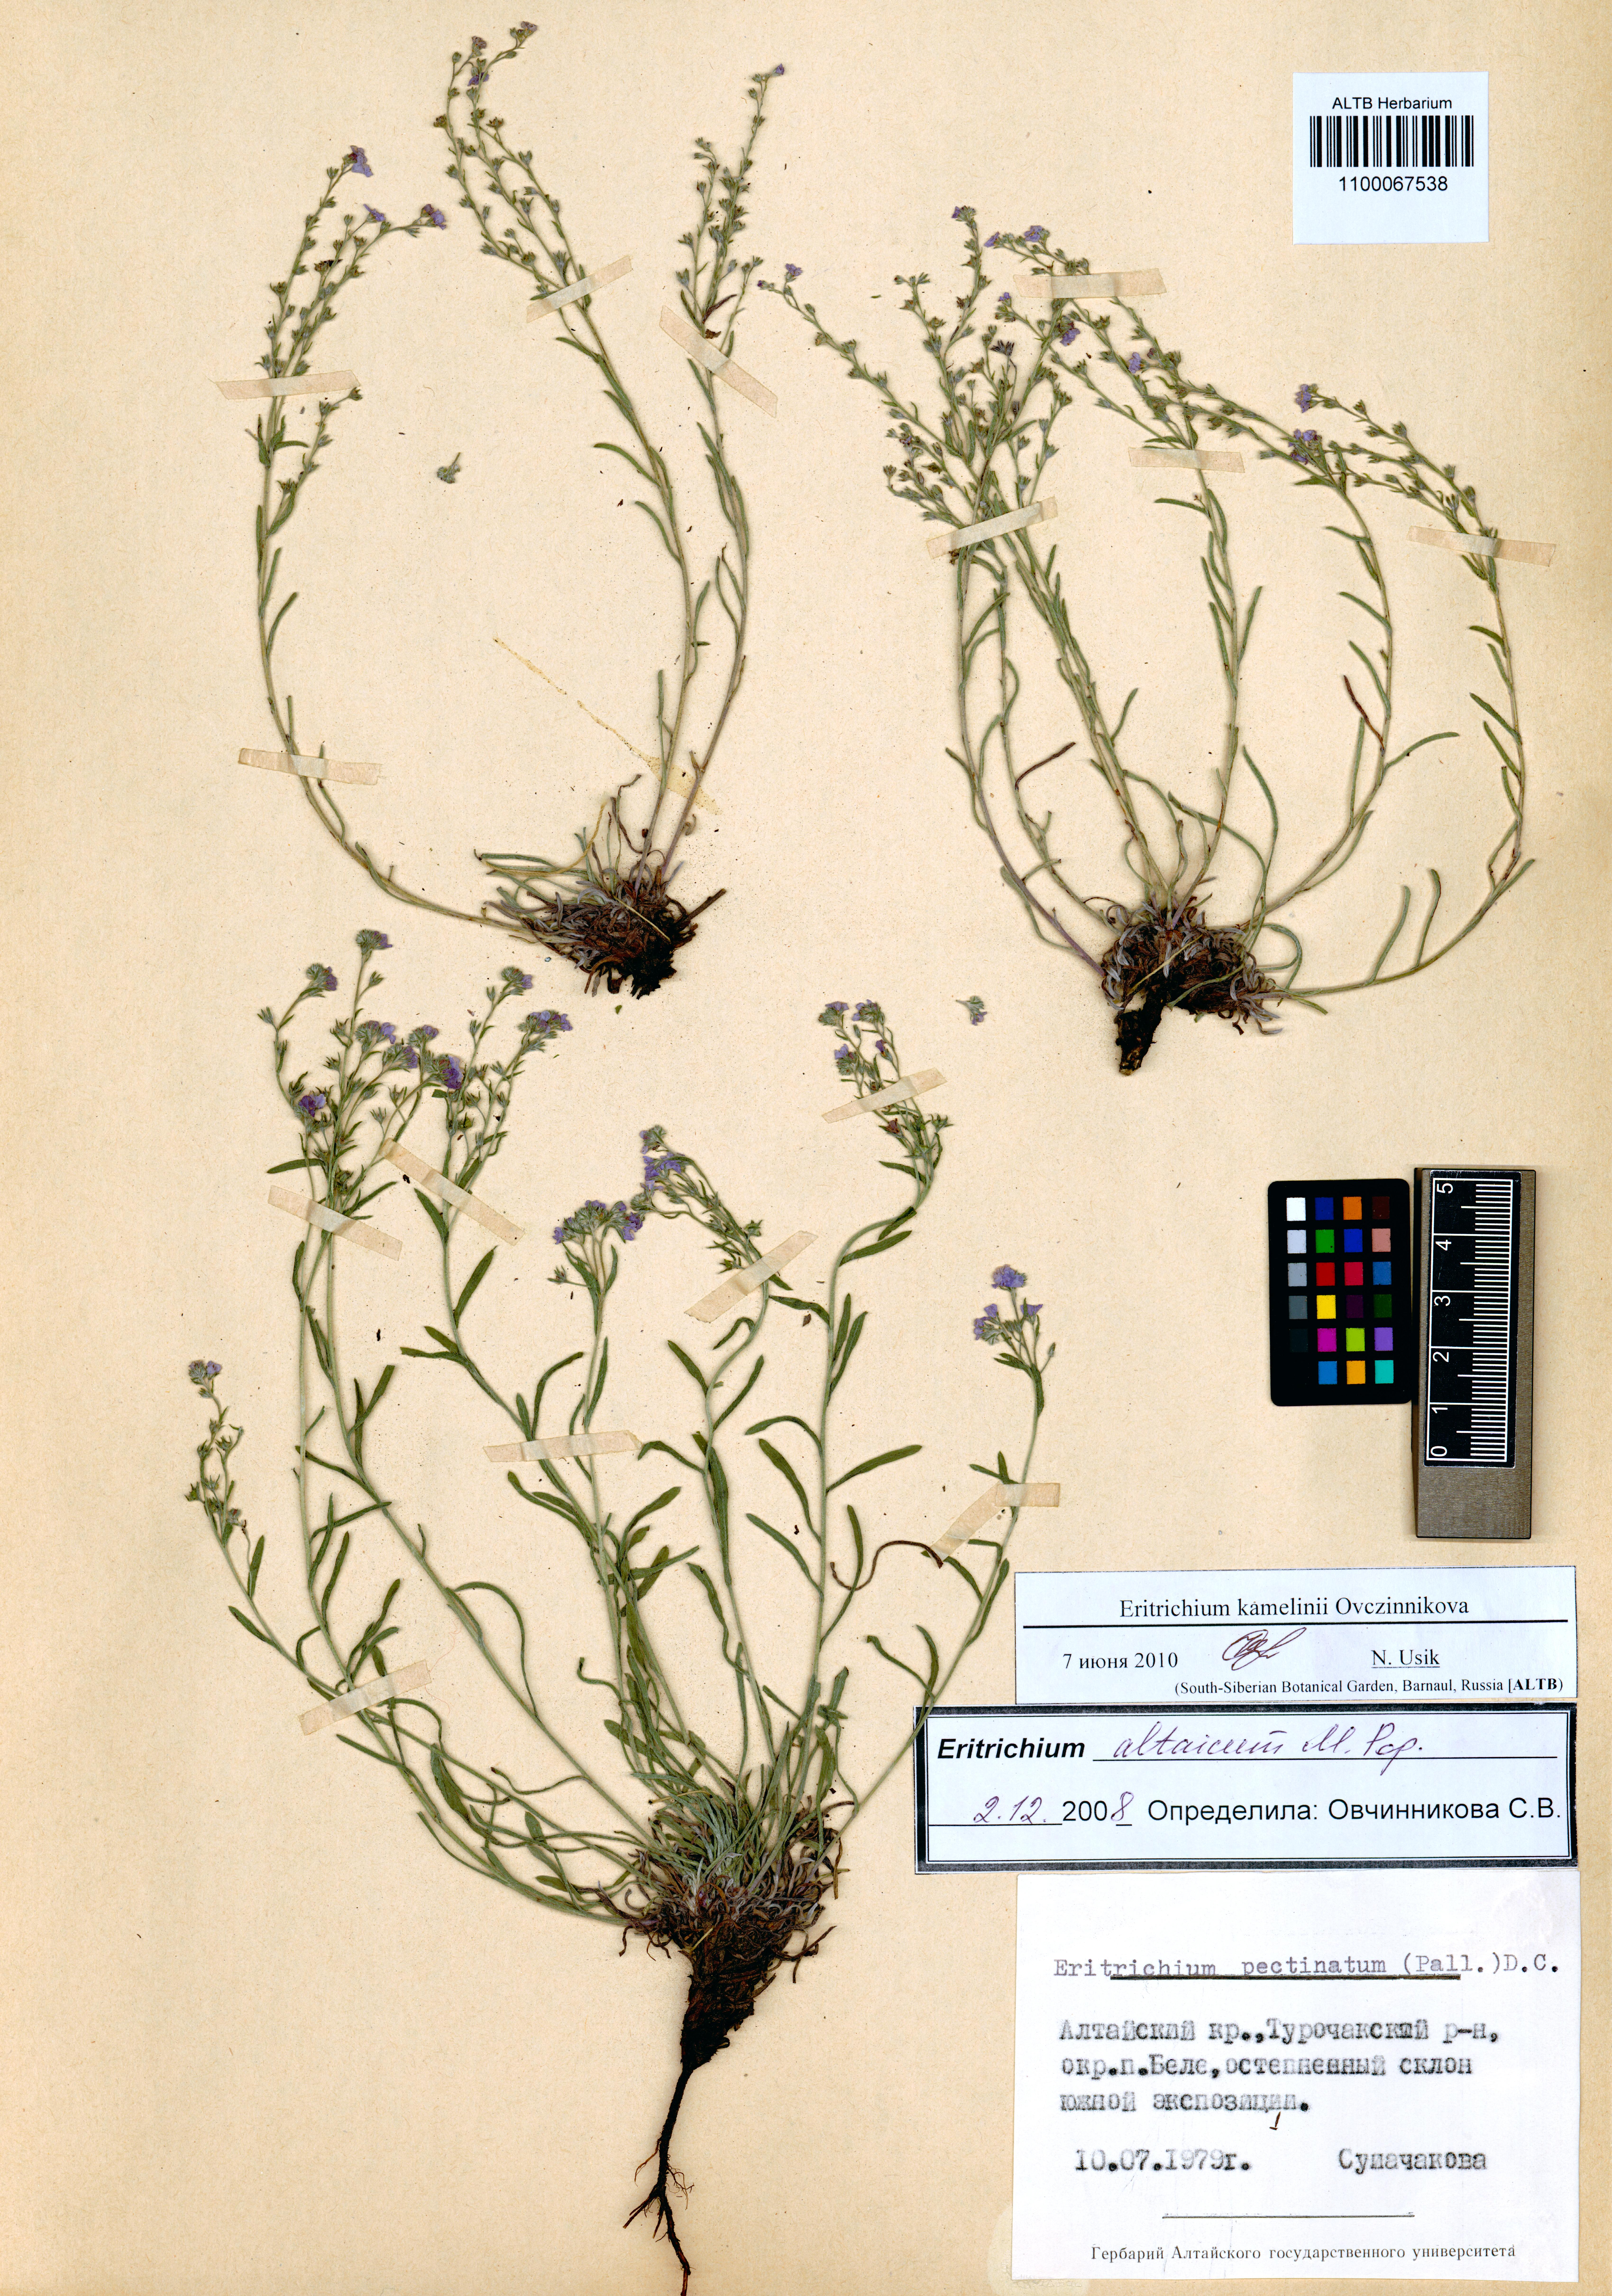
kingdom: Plantae
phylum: Tracheophyta
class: Magnoliopsida
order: Boraginales
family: Boraginaceae
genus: Eritrichium
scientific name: Eritrichium kamelinii
